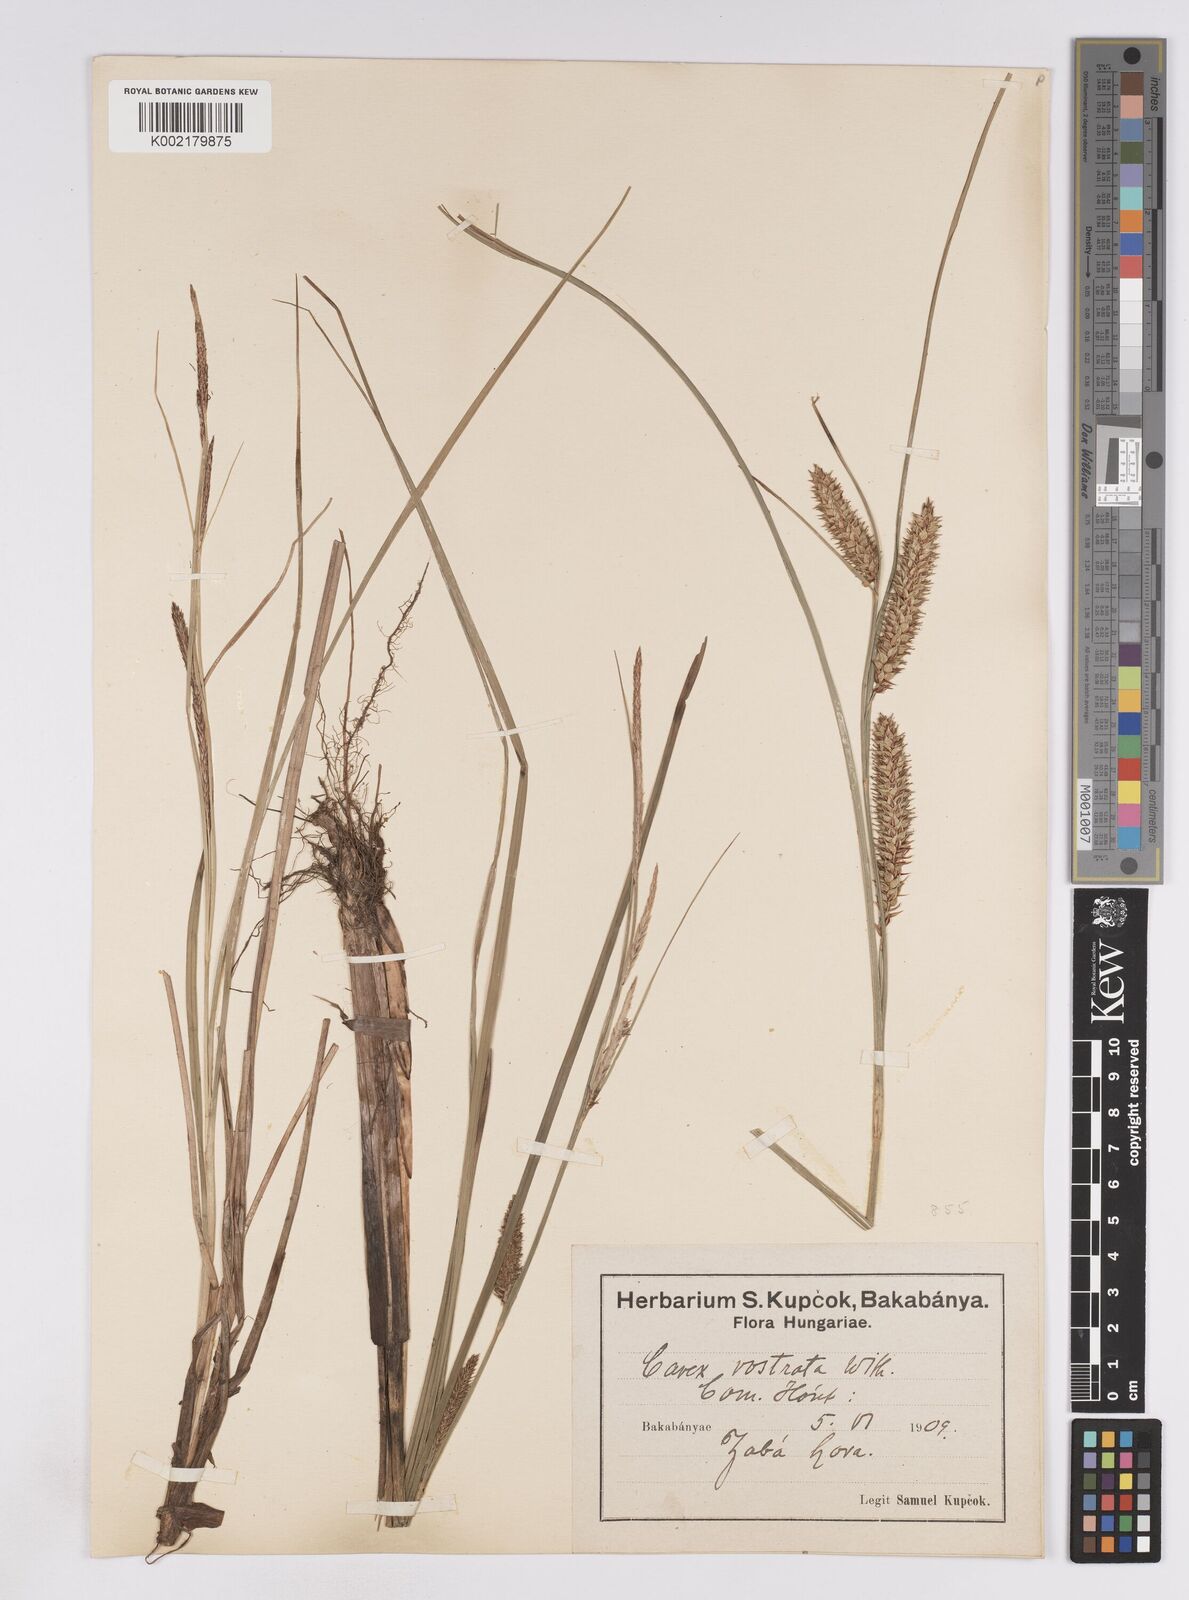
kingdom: Plantae
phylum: Tracheophyta
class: Liliopsida
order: Poales
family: Cyperaceae
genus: Carex
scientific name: Carex rostrata
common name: Bottle sedge
